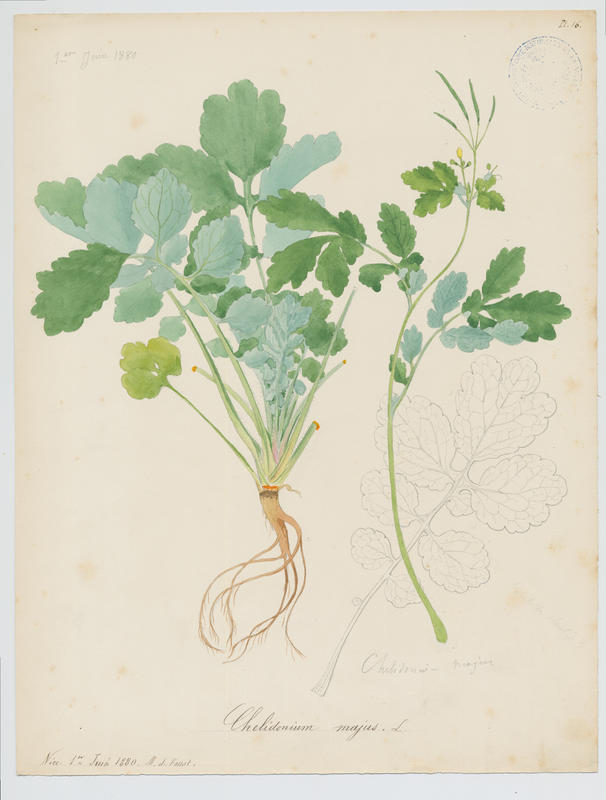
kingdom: Plantae
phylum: Tracheophyta
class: Magnoliopsida
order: Ranunculales
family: Papaveraceae
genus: Chelidonium
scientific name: Chelidonium majus
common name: Greater celandine
